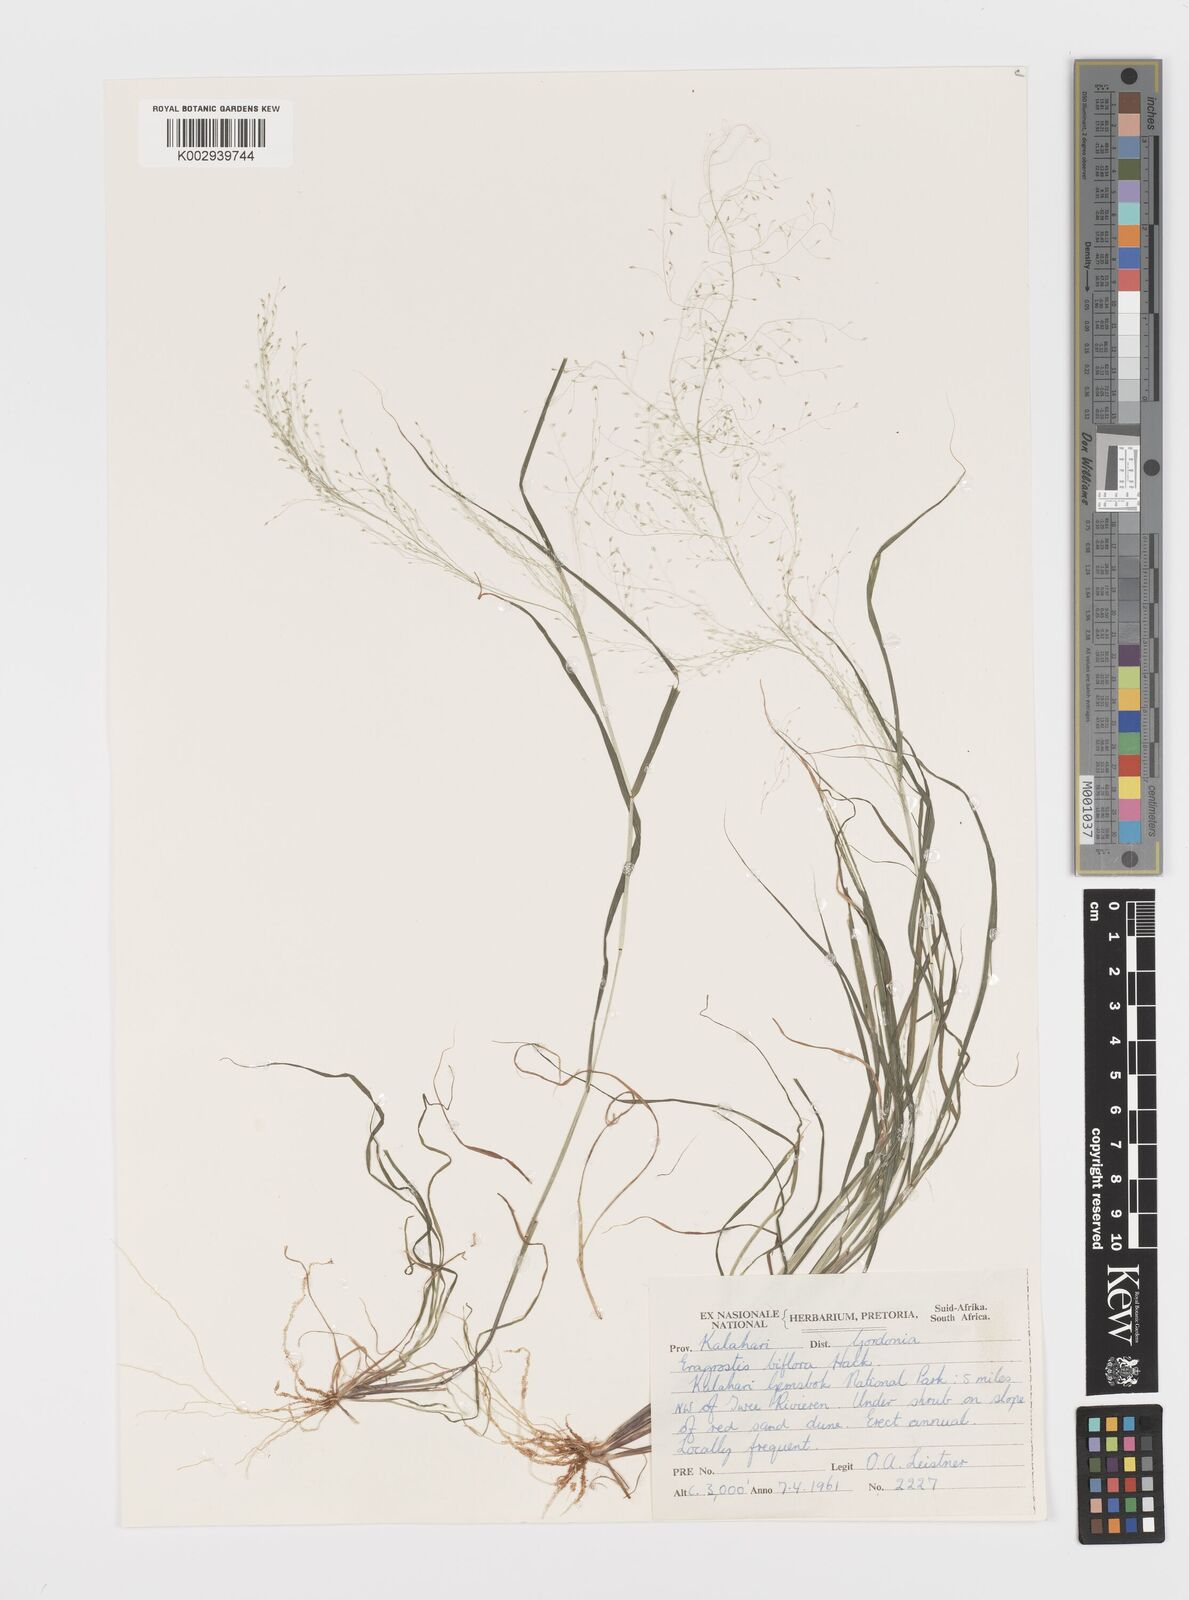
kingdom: Plantae
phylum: Tracheophyta
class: Liliopsida
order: Poales
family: Poaceae
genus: Eragrostis
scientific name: Eragrostis biflora
